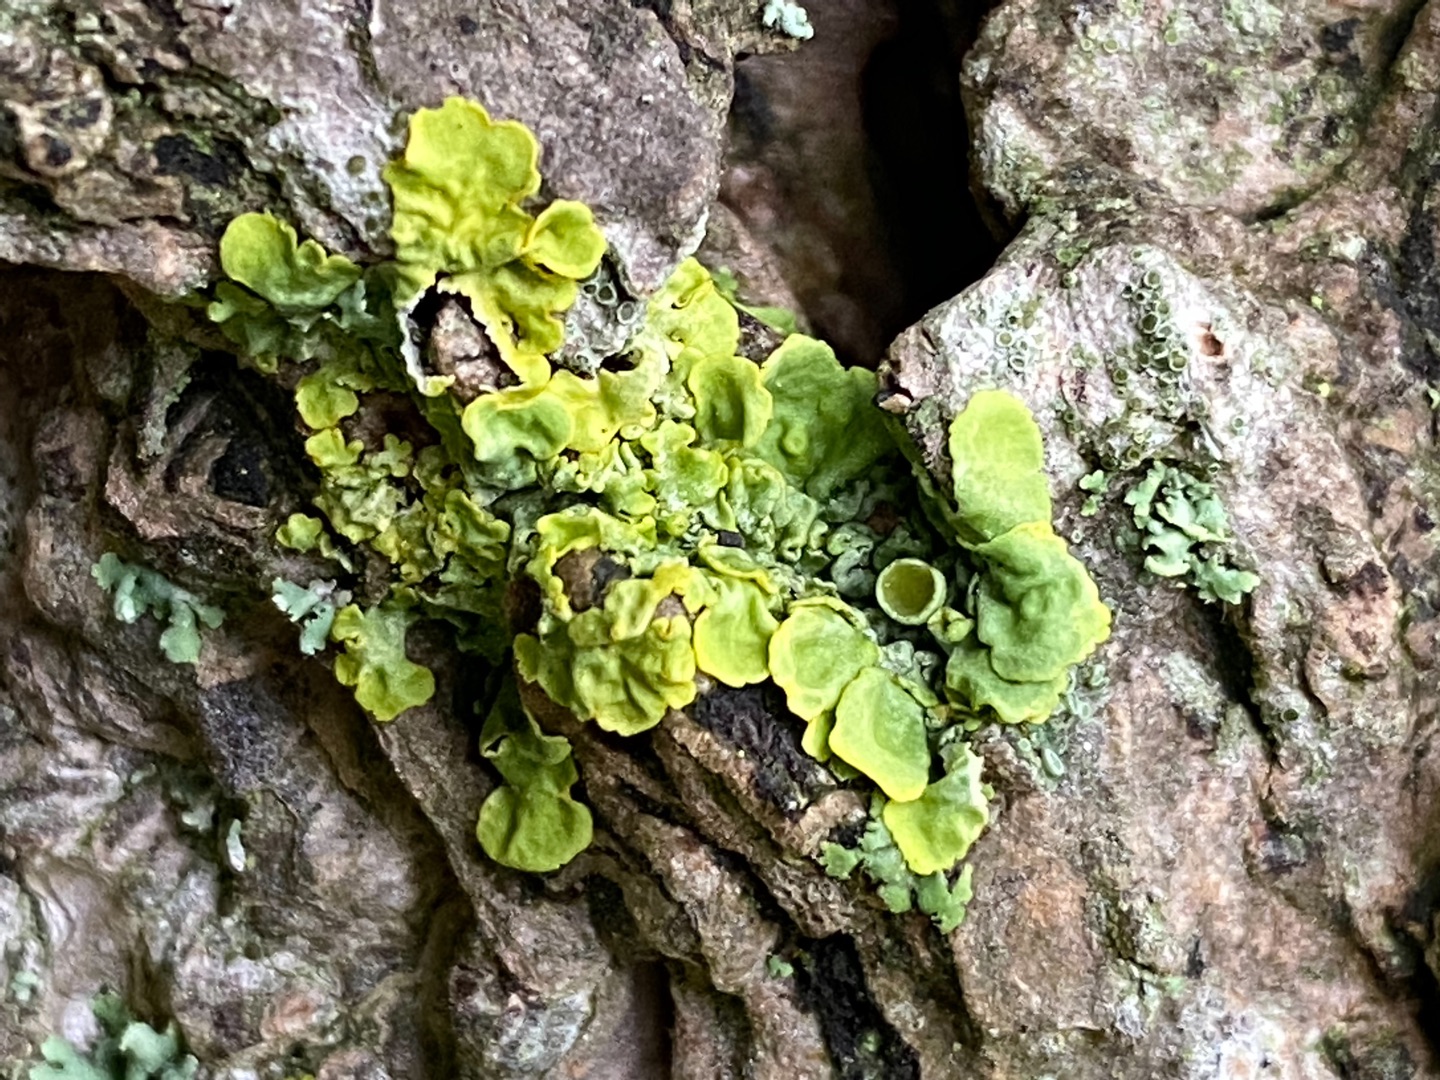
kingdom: Fungi
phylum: Ascomycota
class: Lecanoromycetes
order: Teloschistales
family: Teloschistaceae
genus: Xanthoria
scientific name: Xanthoria parietina
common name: Almindelig væggelav
